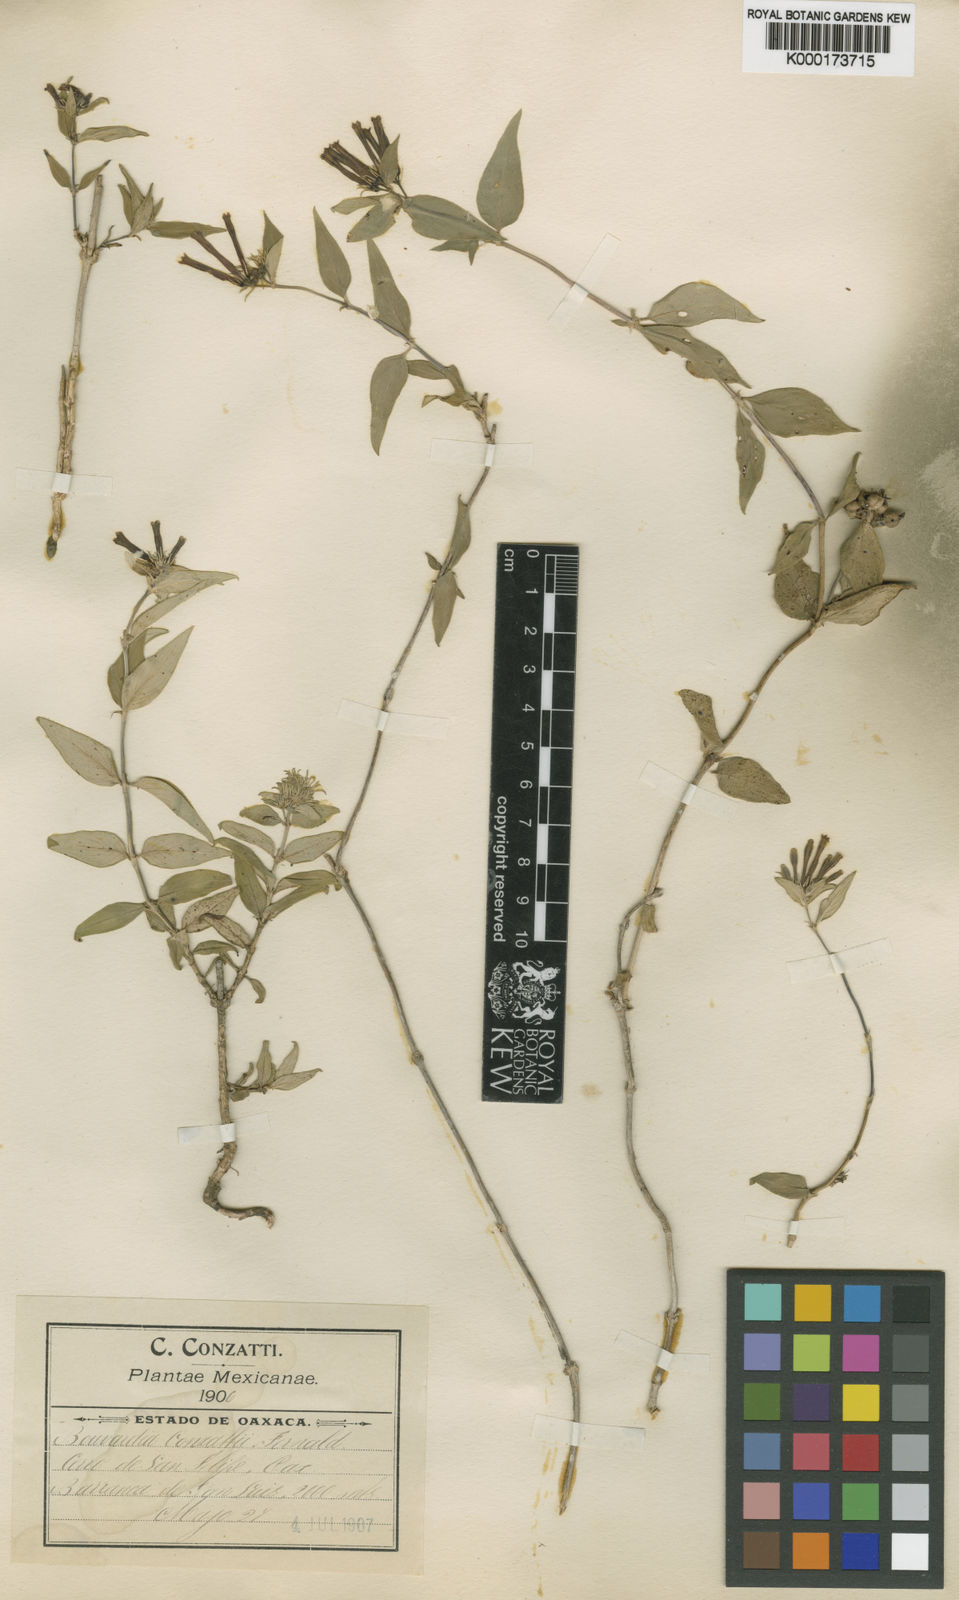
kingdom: Plantae
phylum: Tracheophyta
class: Magnoliopsida
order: Gentianales
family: Rubiaceae
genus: Bouvardia
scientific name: Bouvardia conzattii
